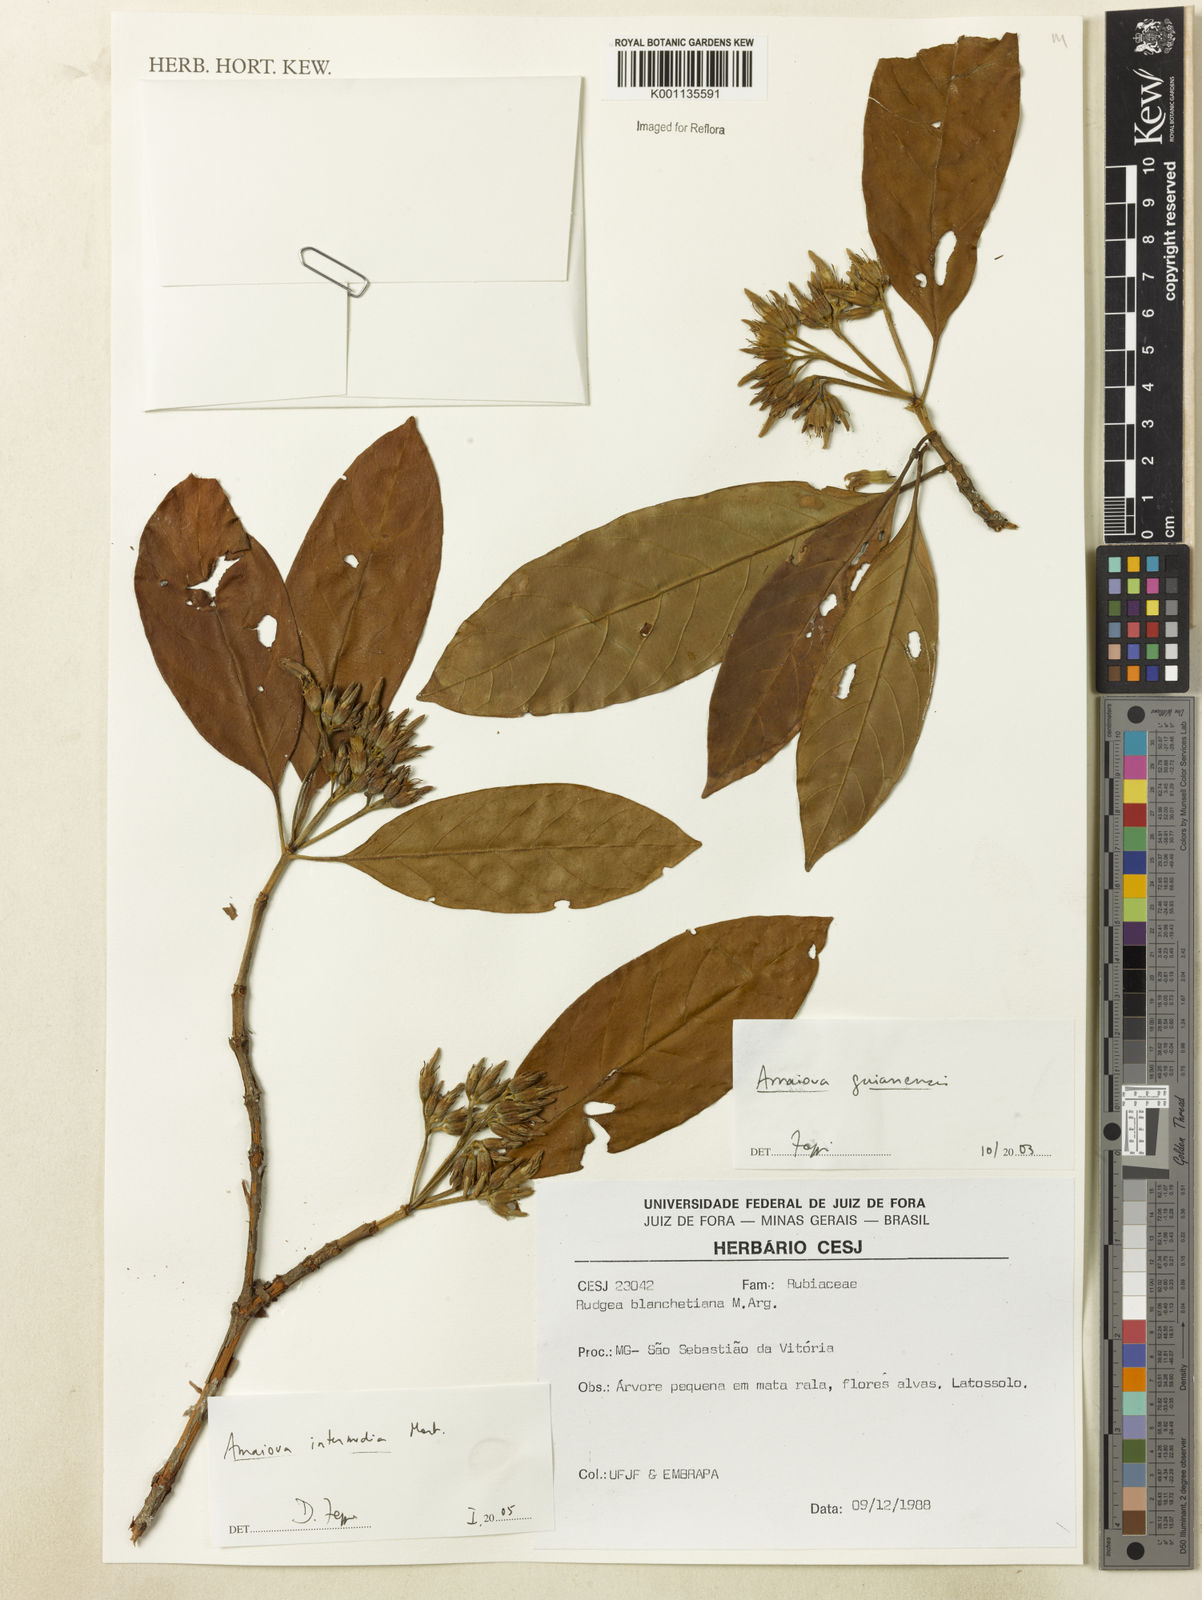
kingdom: Plantae
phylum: Tracheophyta
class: Magnoliopsida
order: Gentianales
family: Rubiaceae
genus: Amaioua
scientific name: Amaioua intermedia
